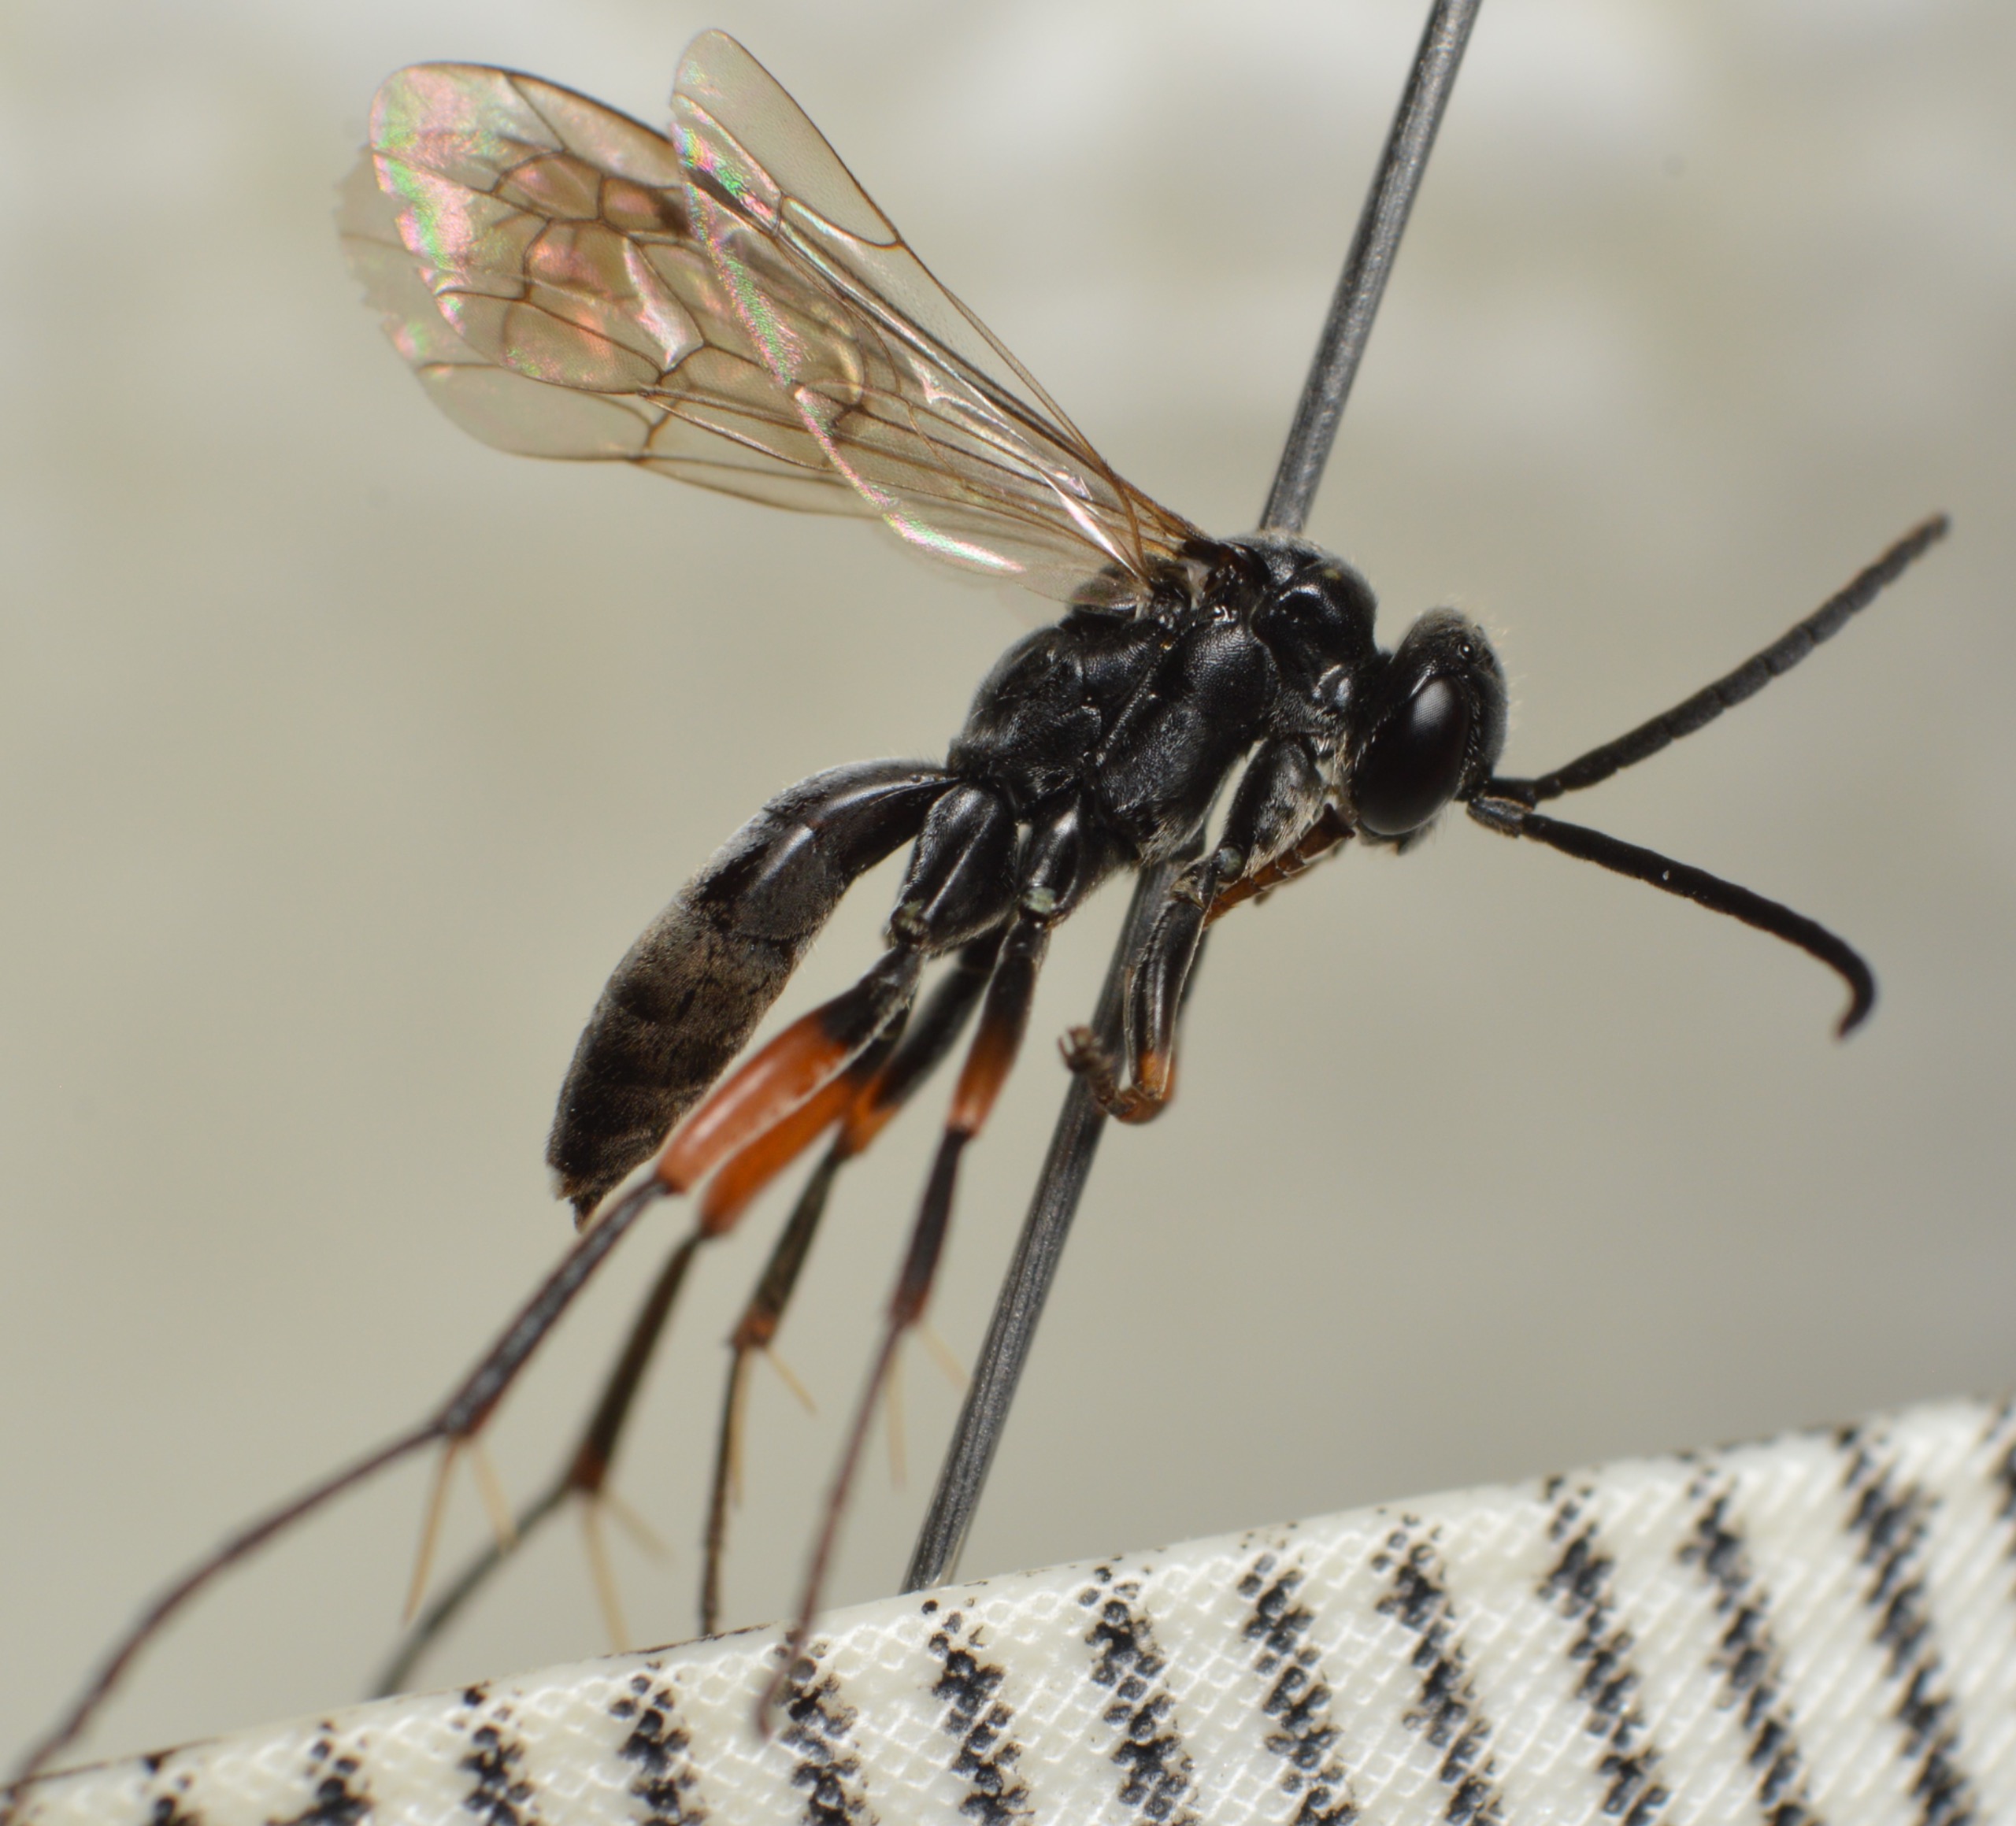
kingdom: Animalia
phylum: Arthropoda
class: Insecta
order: Hymenoptera
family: Pompilidae
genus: Caliadurgus
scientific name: Caliadurgus fasciatellus
